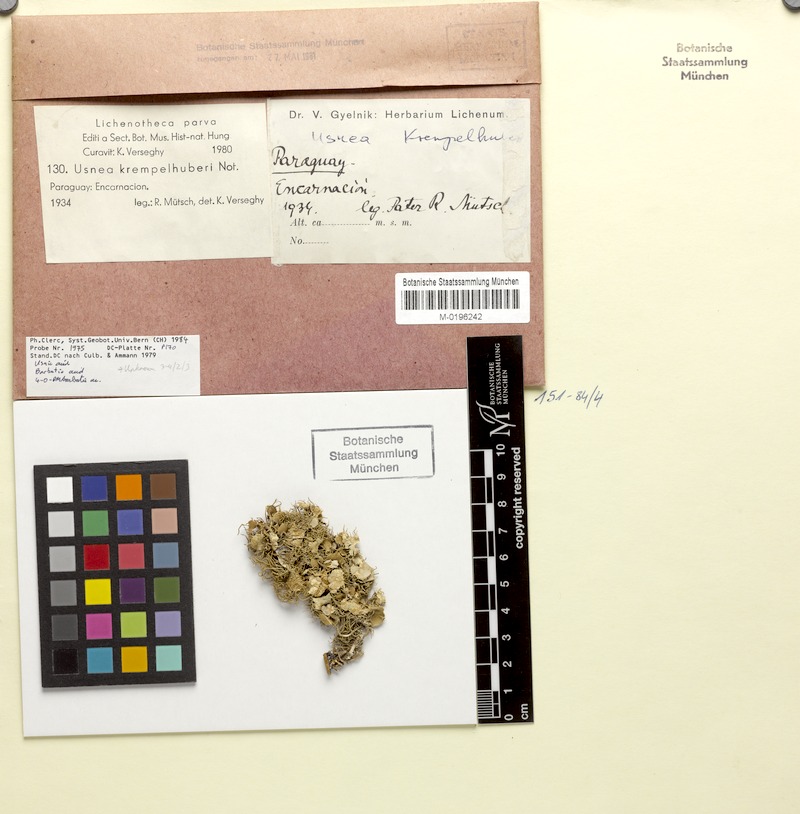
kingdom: Fungi
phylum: Ascomycota
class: Lecanoromycetes
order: Lecanorales
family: Parmeliaceae
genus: Usnea
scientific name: Usnea krempelhuberi
